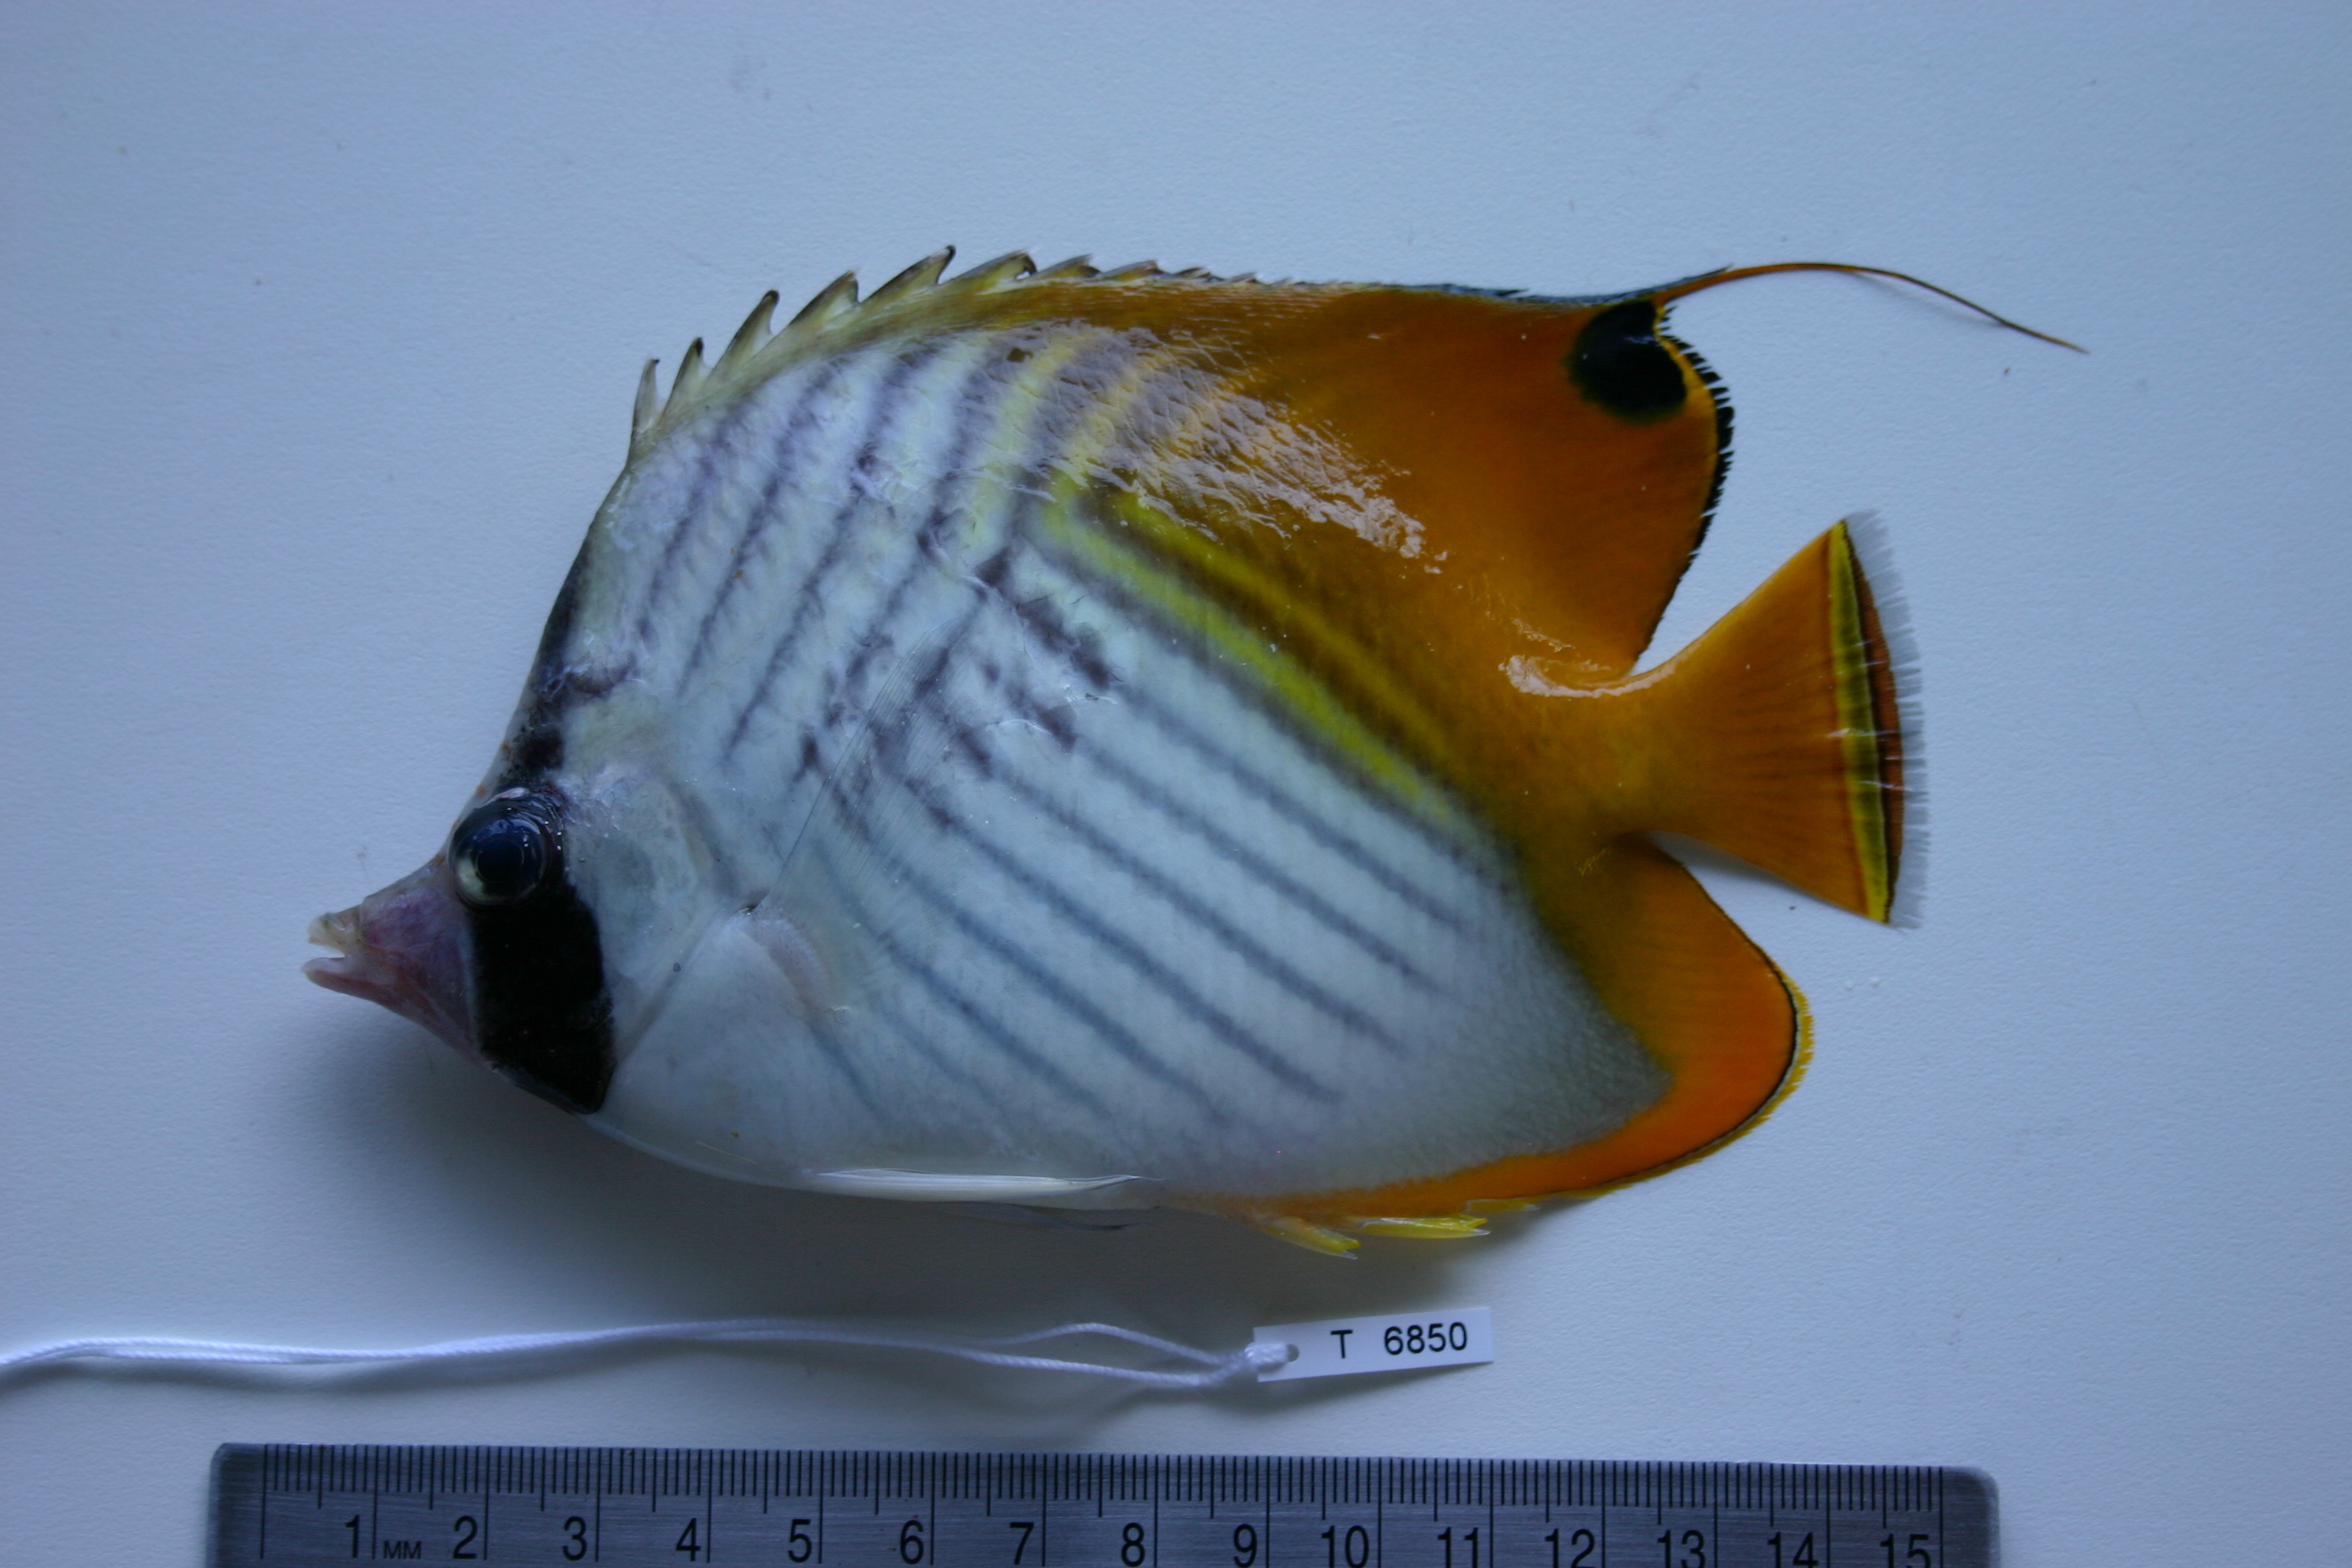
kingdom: Animalia
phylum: Chordata
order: Perciformes
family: Chaetodontidae
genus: Chaetodon
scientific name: Chaetodon auriga
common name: Threadfin butterflyfish
